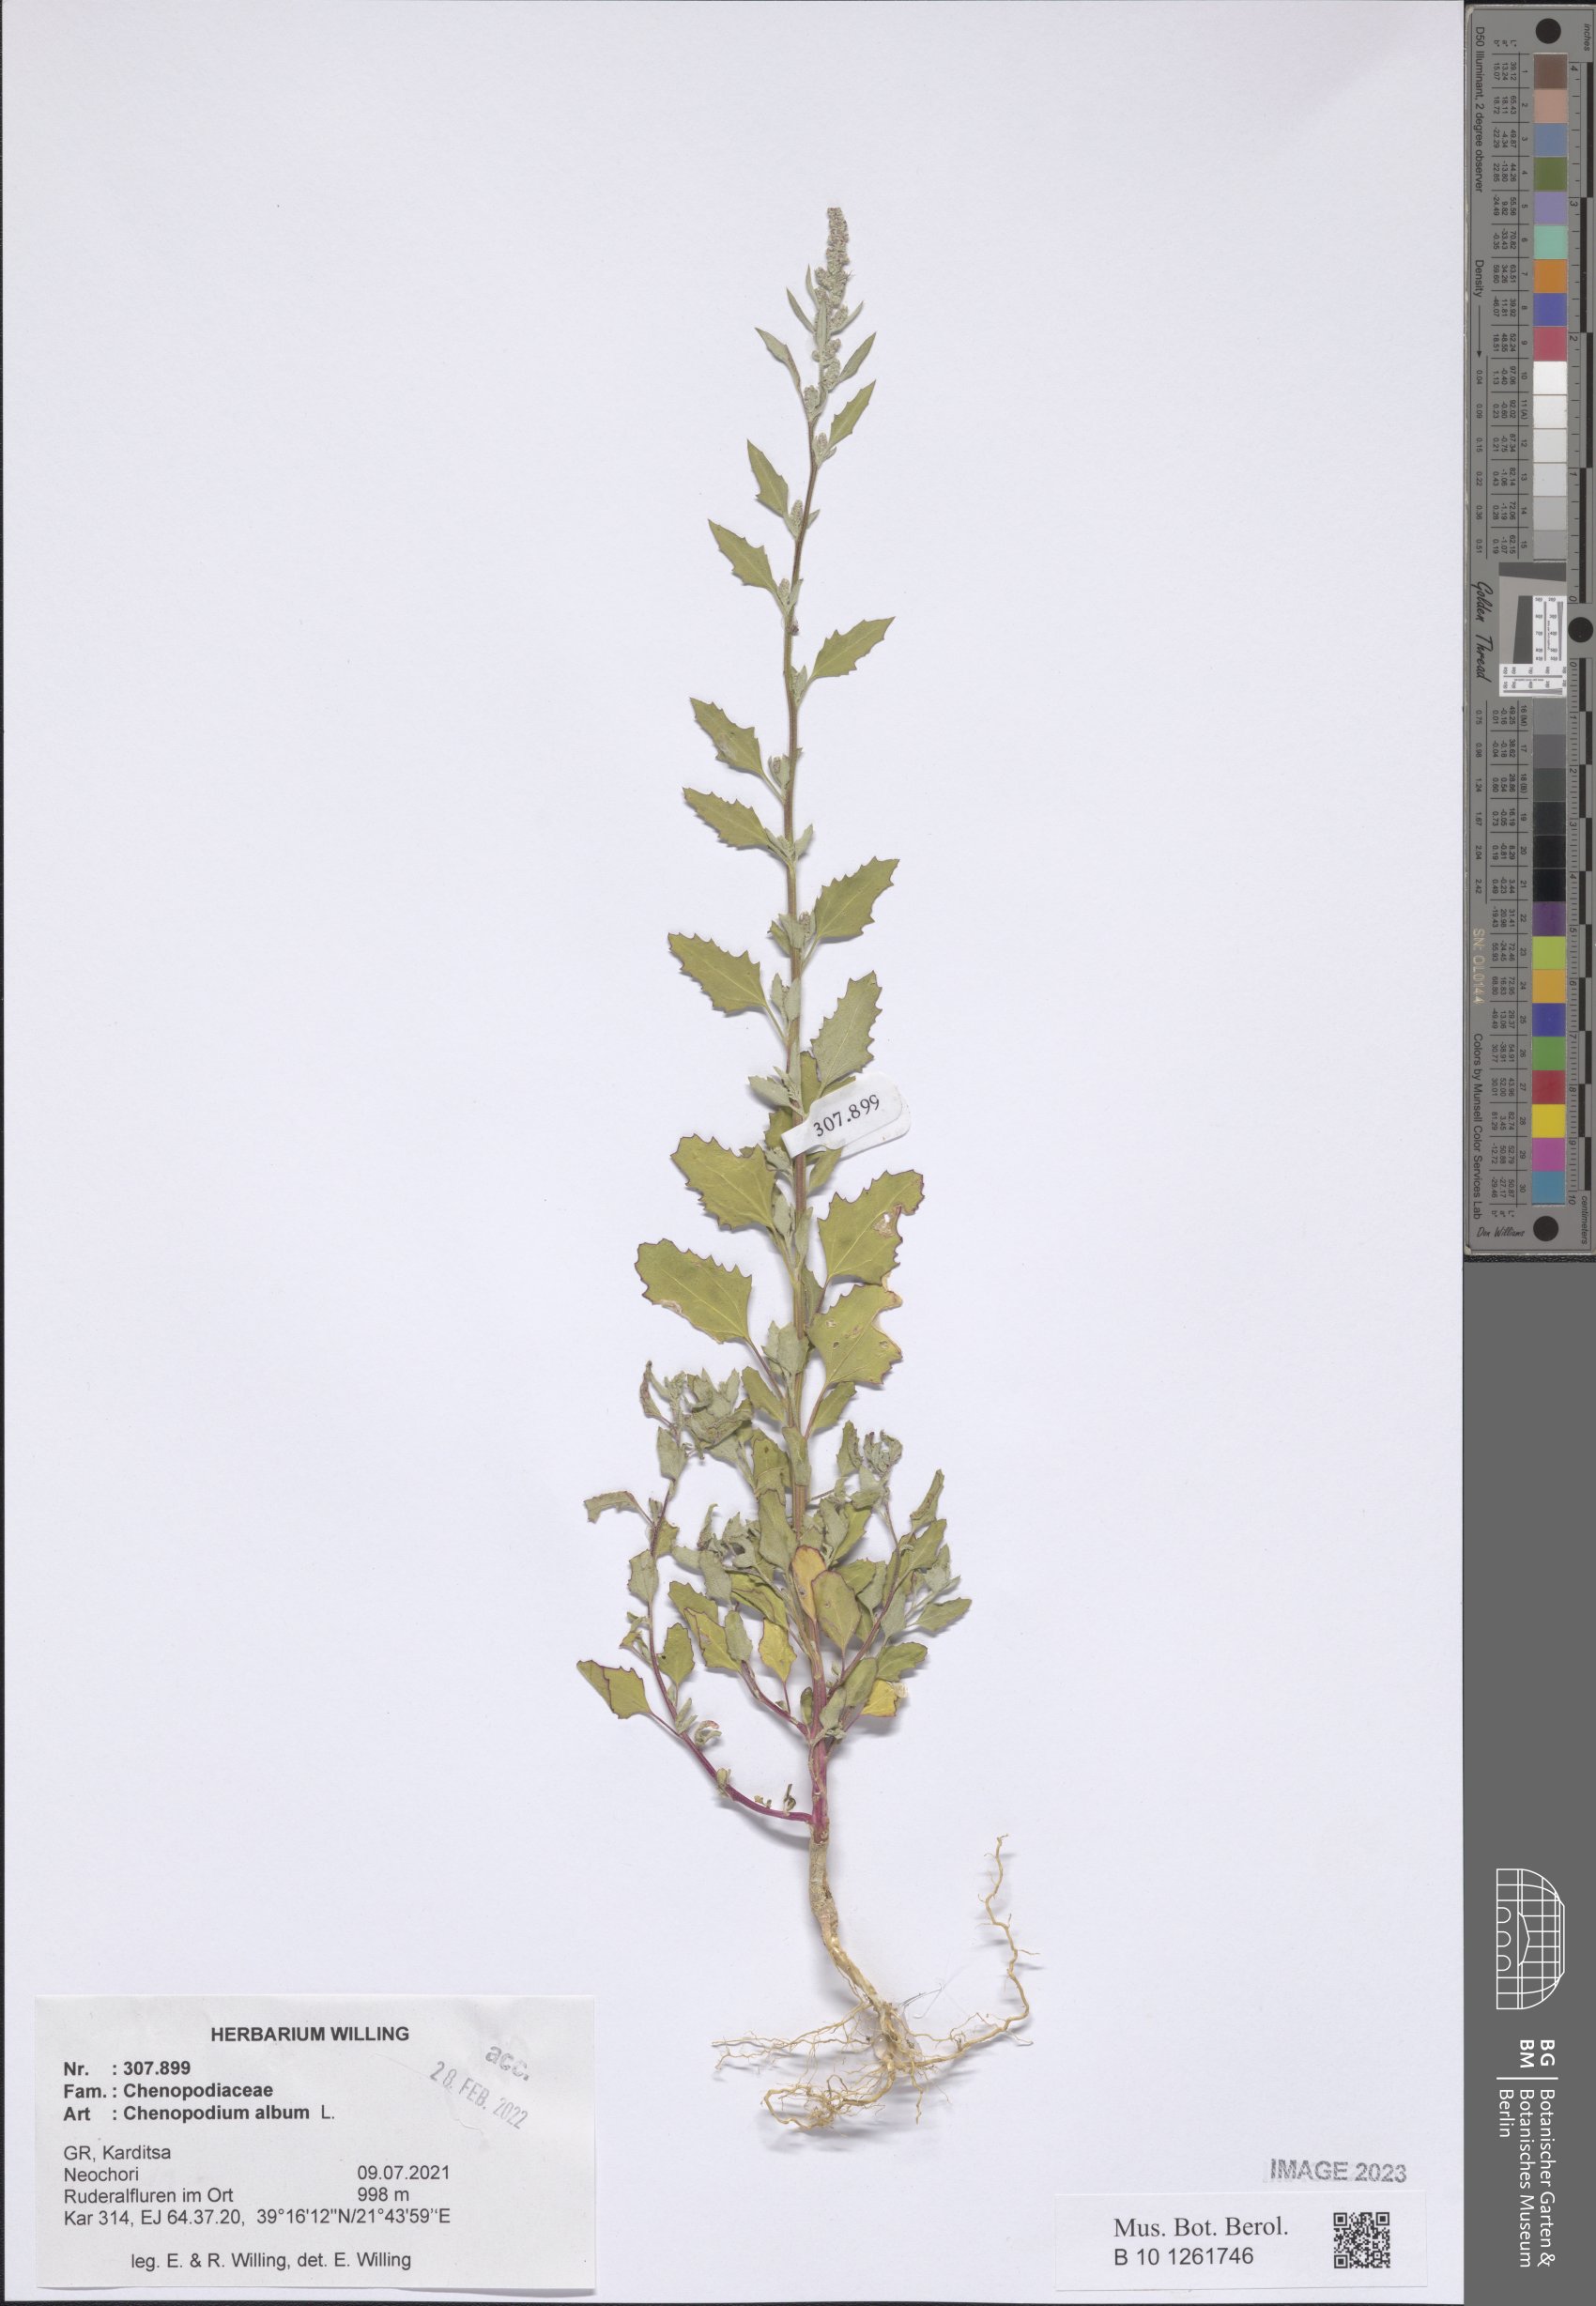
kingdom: Plantae
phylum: Tracheophyta
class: Magnoliopsida
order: Caryophyllales
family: Amaranthaceae
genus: Chenopodium
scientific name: Chenopodium album
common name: Fat-hen
